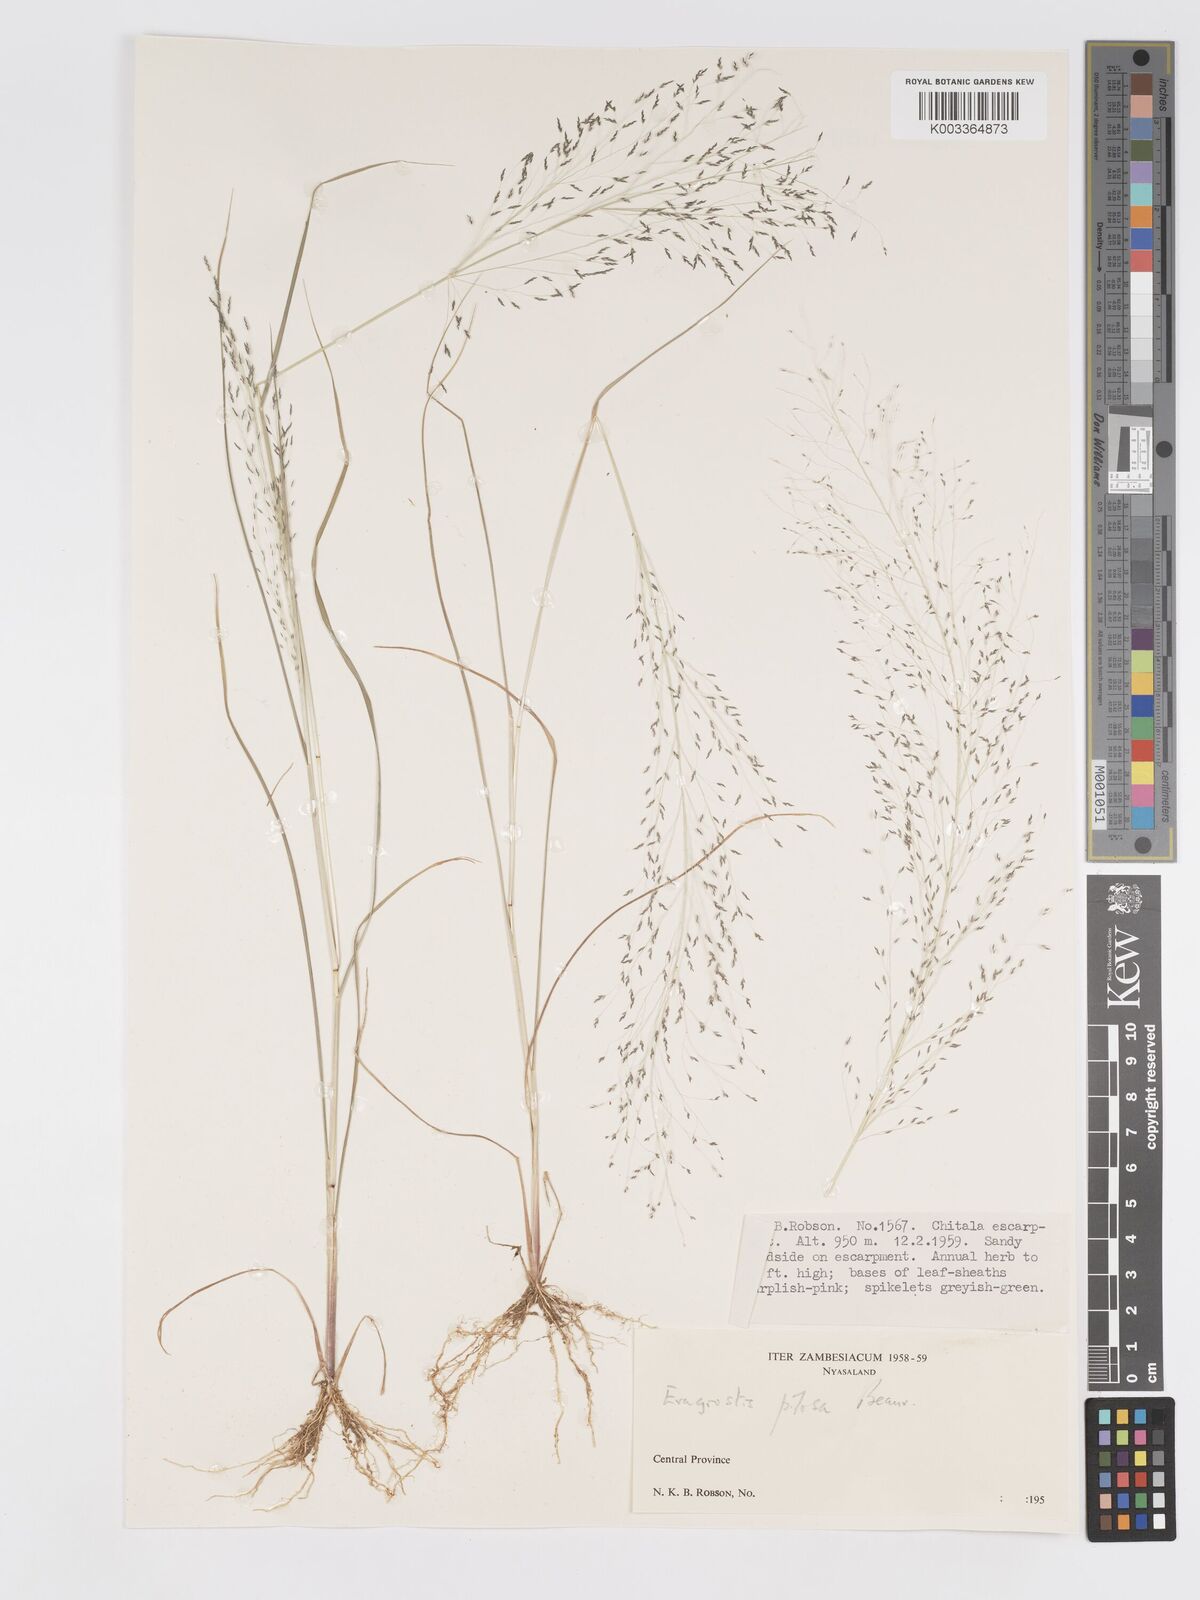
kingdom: Plantae
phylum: Tracheophyta
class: Liliopsida
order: Poales
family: Poaceae
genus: Eragrostis
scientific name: Eragrostis pilosa
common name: Indian lovegrass
